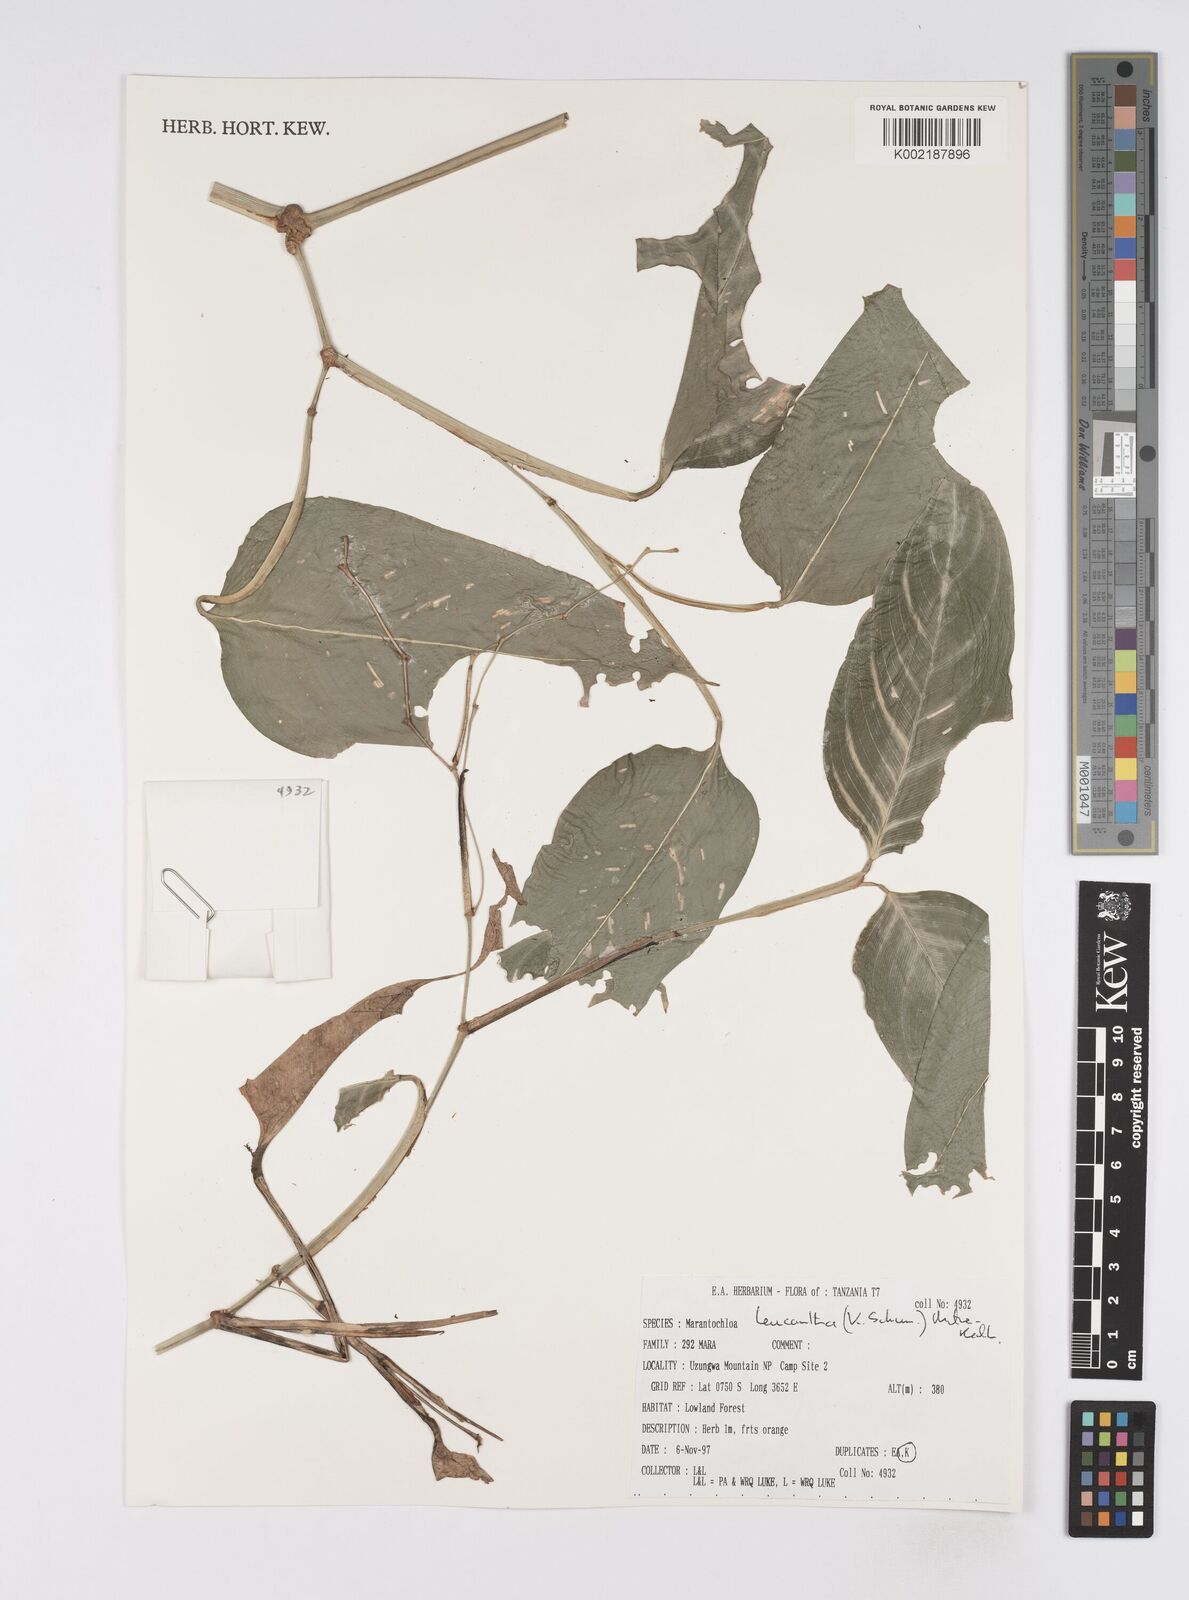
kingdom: Plantae
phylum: Tracheophyta
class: Liliopsida
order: Zingiberales
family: Marantaceae
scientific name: Marantaceae
